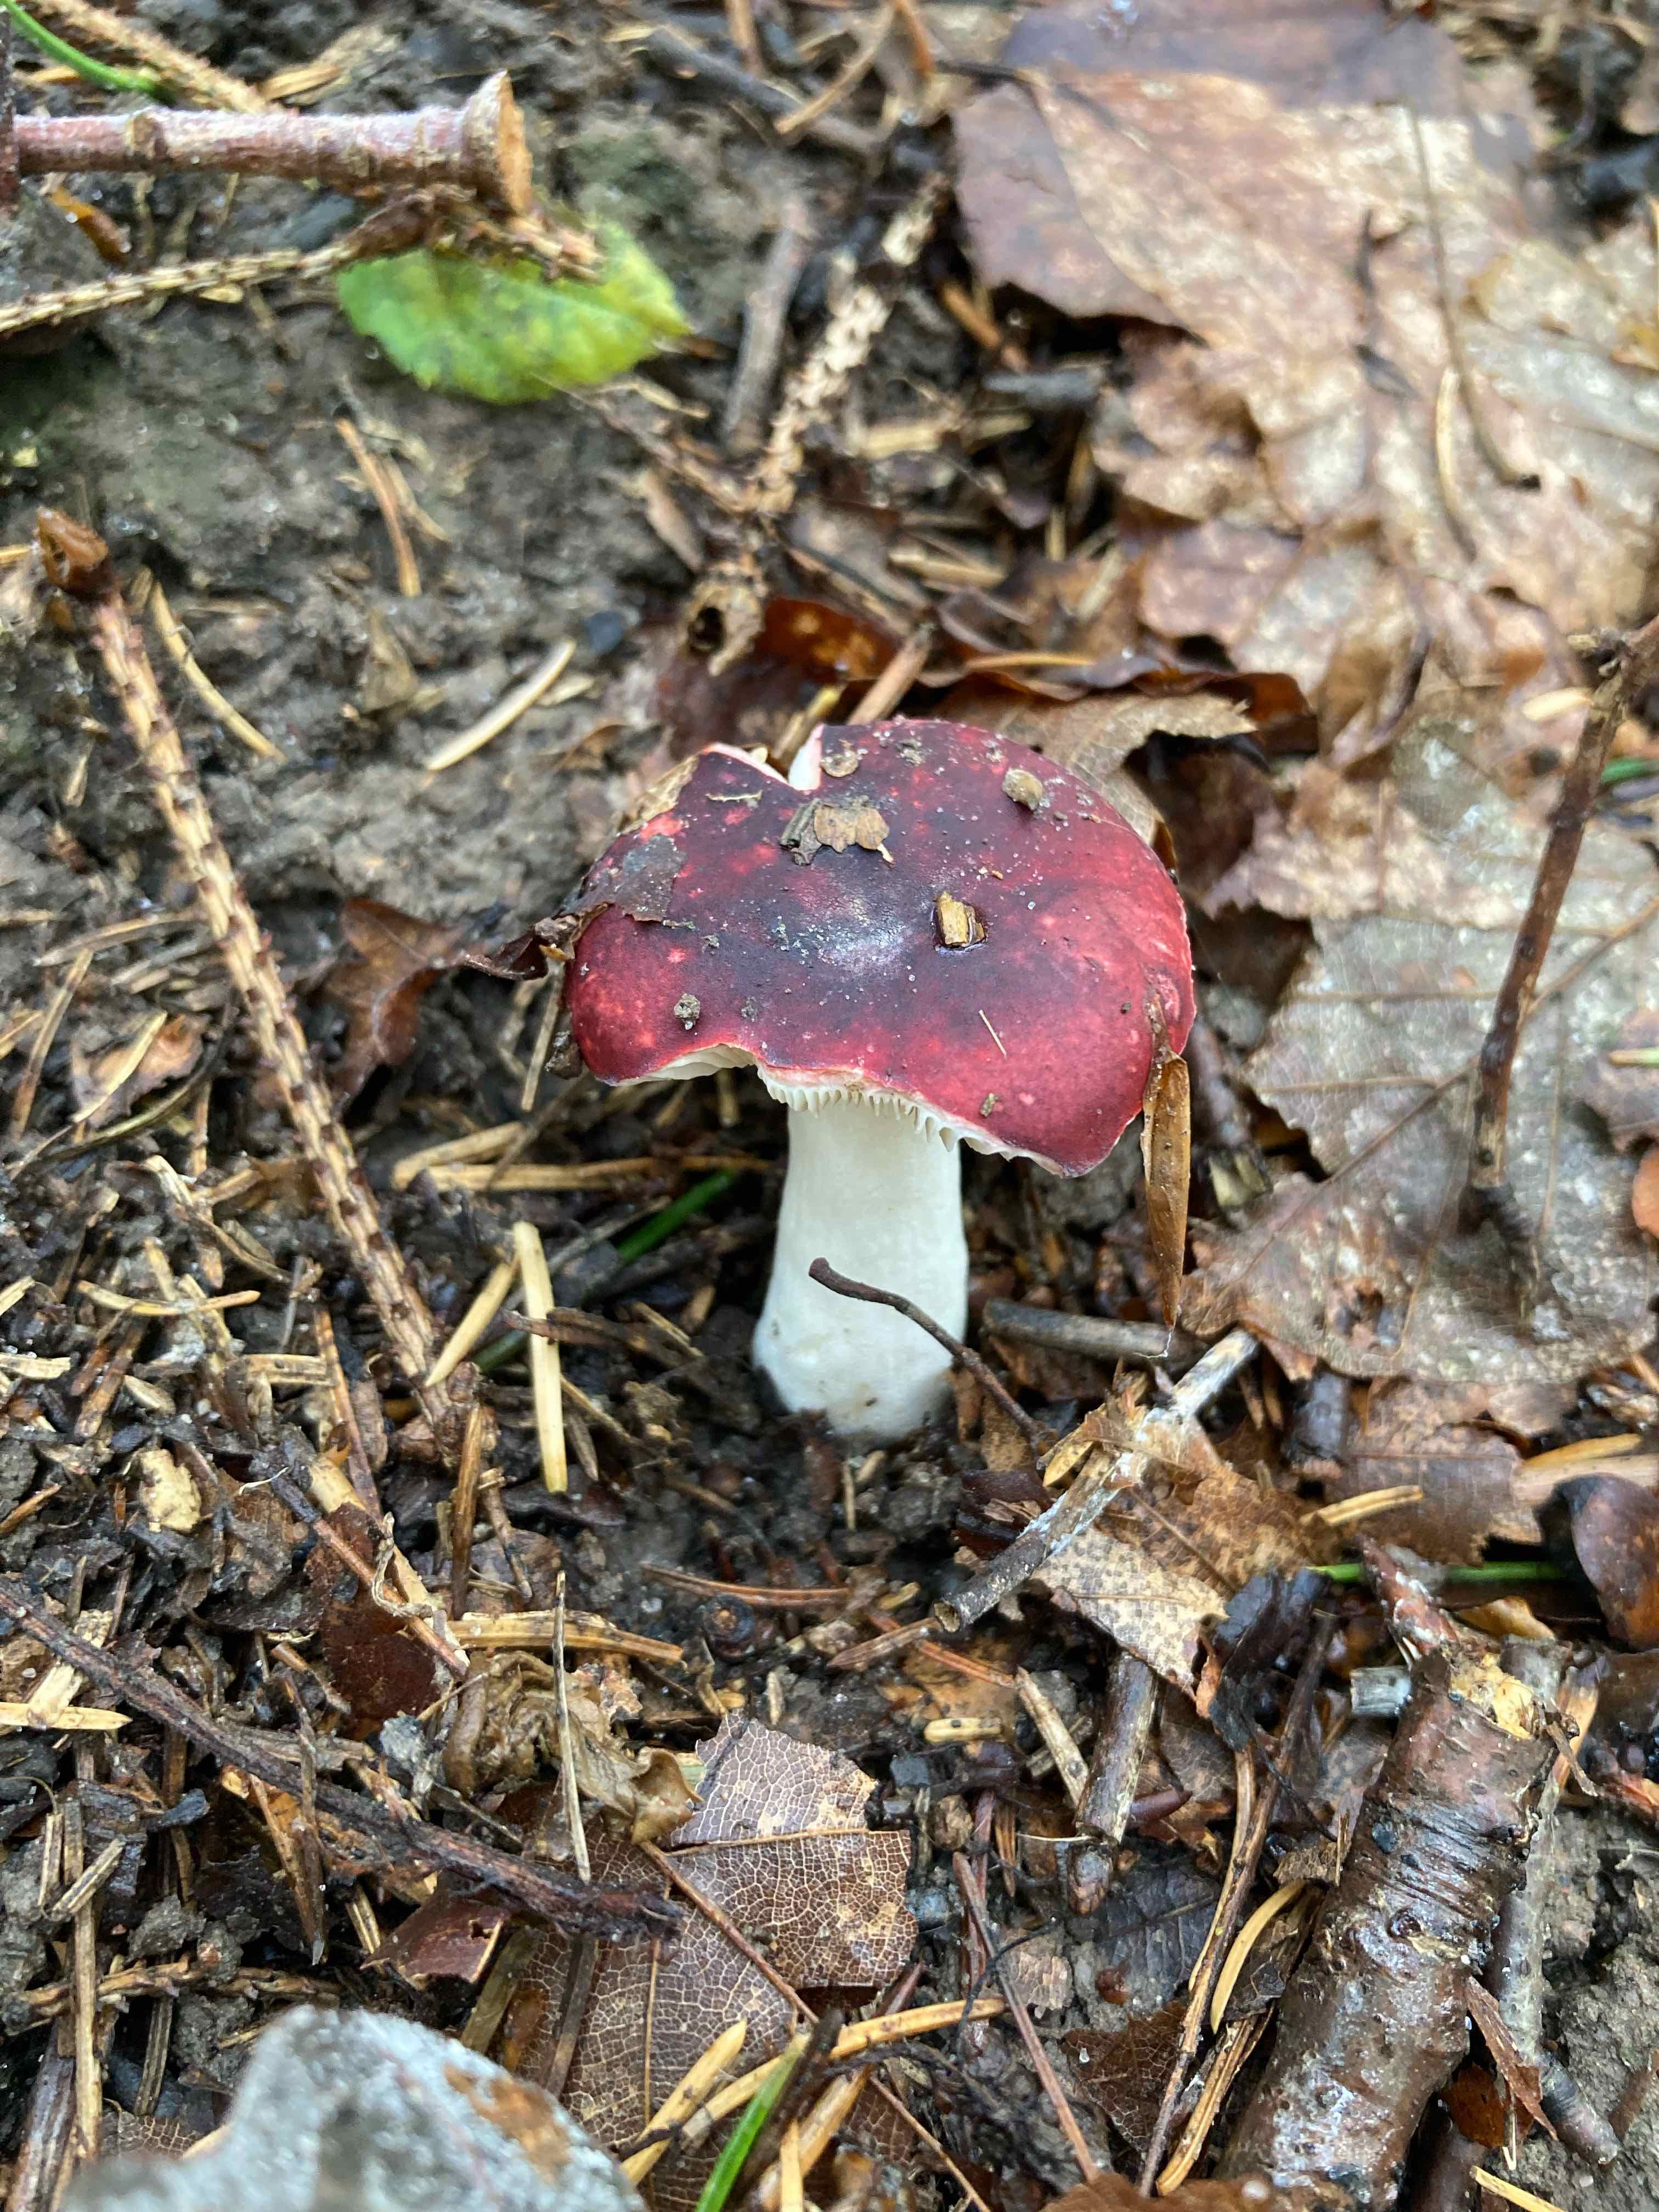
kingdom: Fungi
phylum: Basidiomycota
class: Agaricomycetes
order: Russulales
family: Russulaceae
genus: Russula
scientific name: Russula
